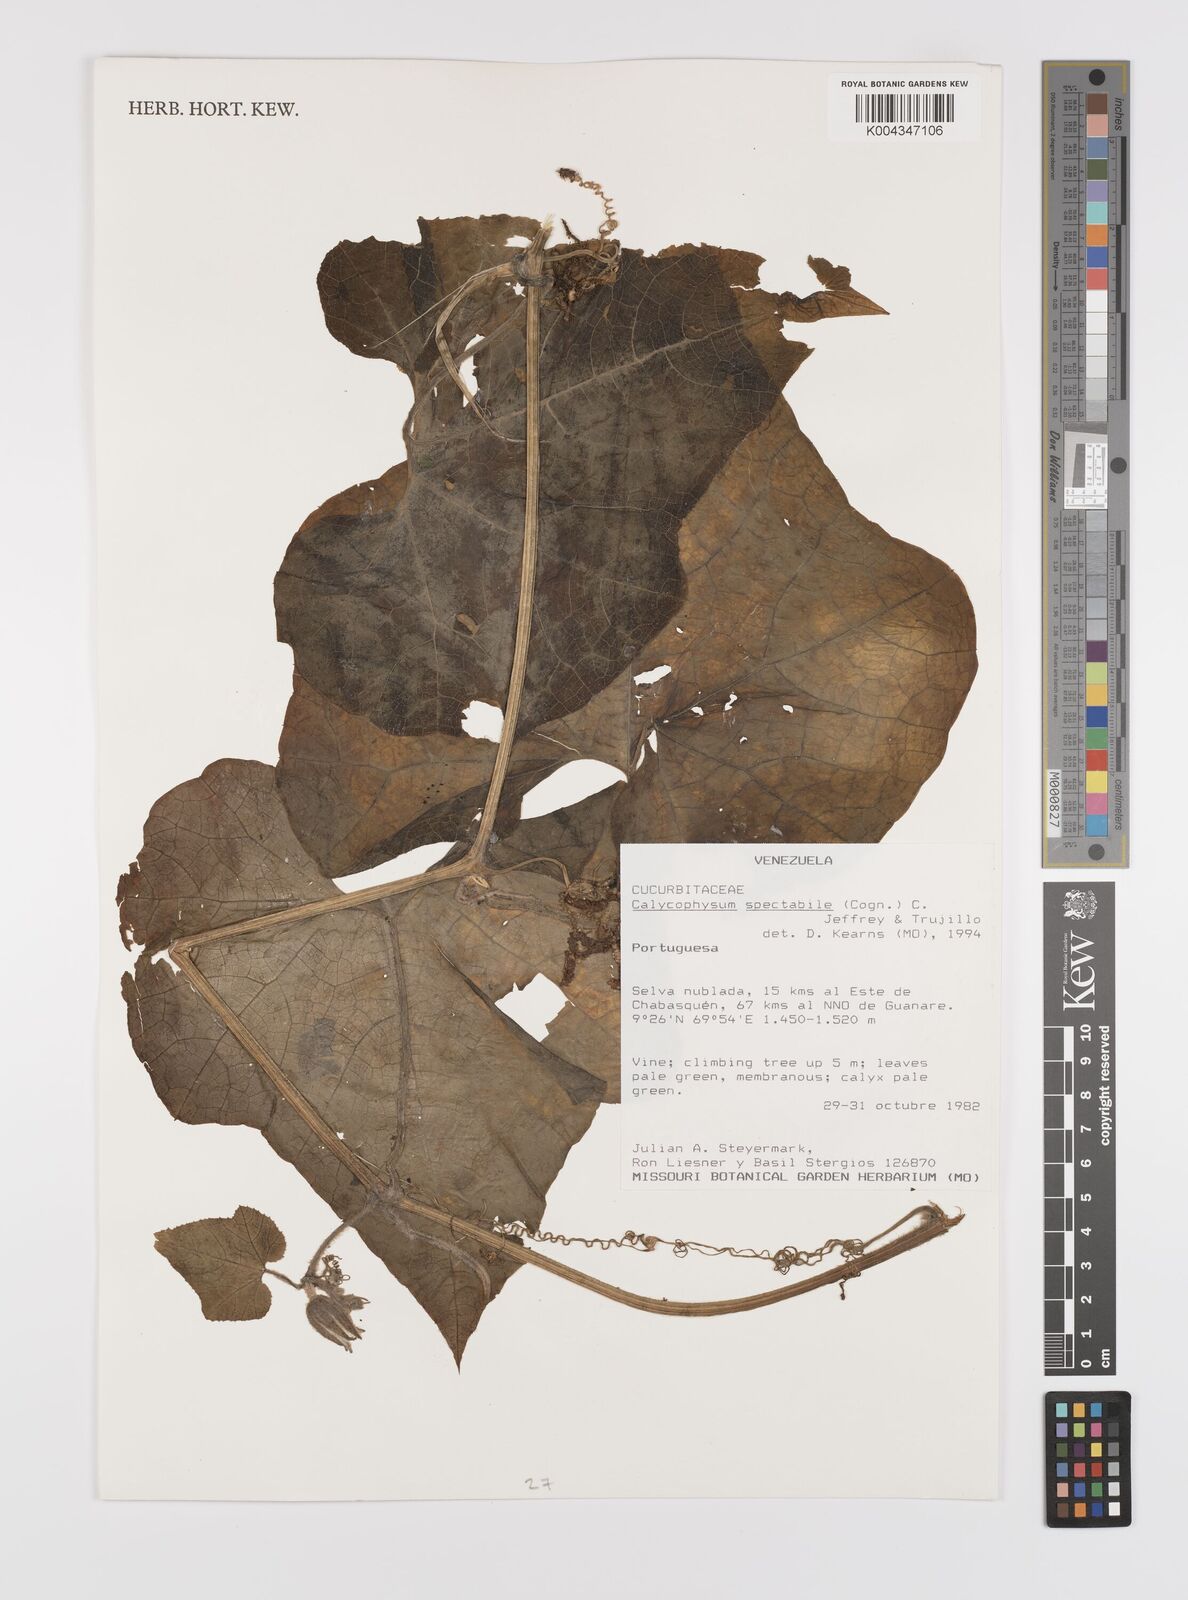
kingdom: Plantae
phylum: Tracheophyta
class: Magnoliopsida
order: Cucurbitales
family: Cucurbitaceae
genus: Calycophysum
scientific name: Calycophysum spectabile
